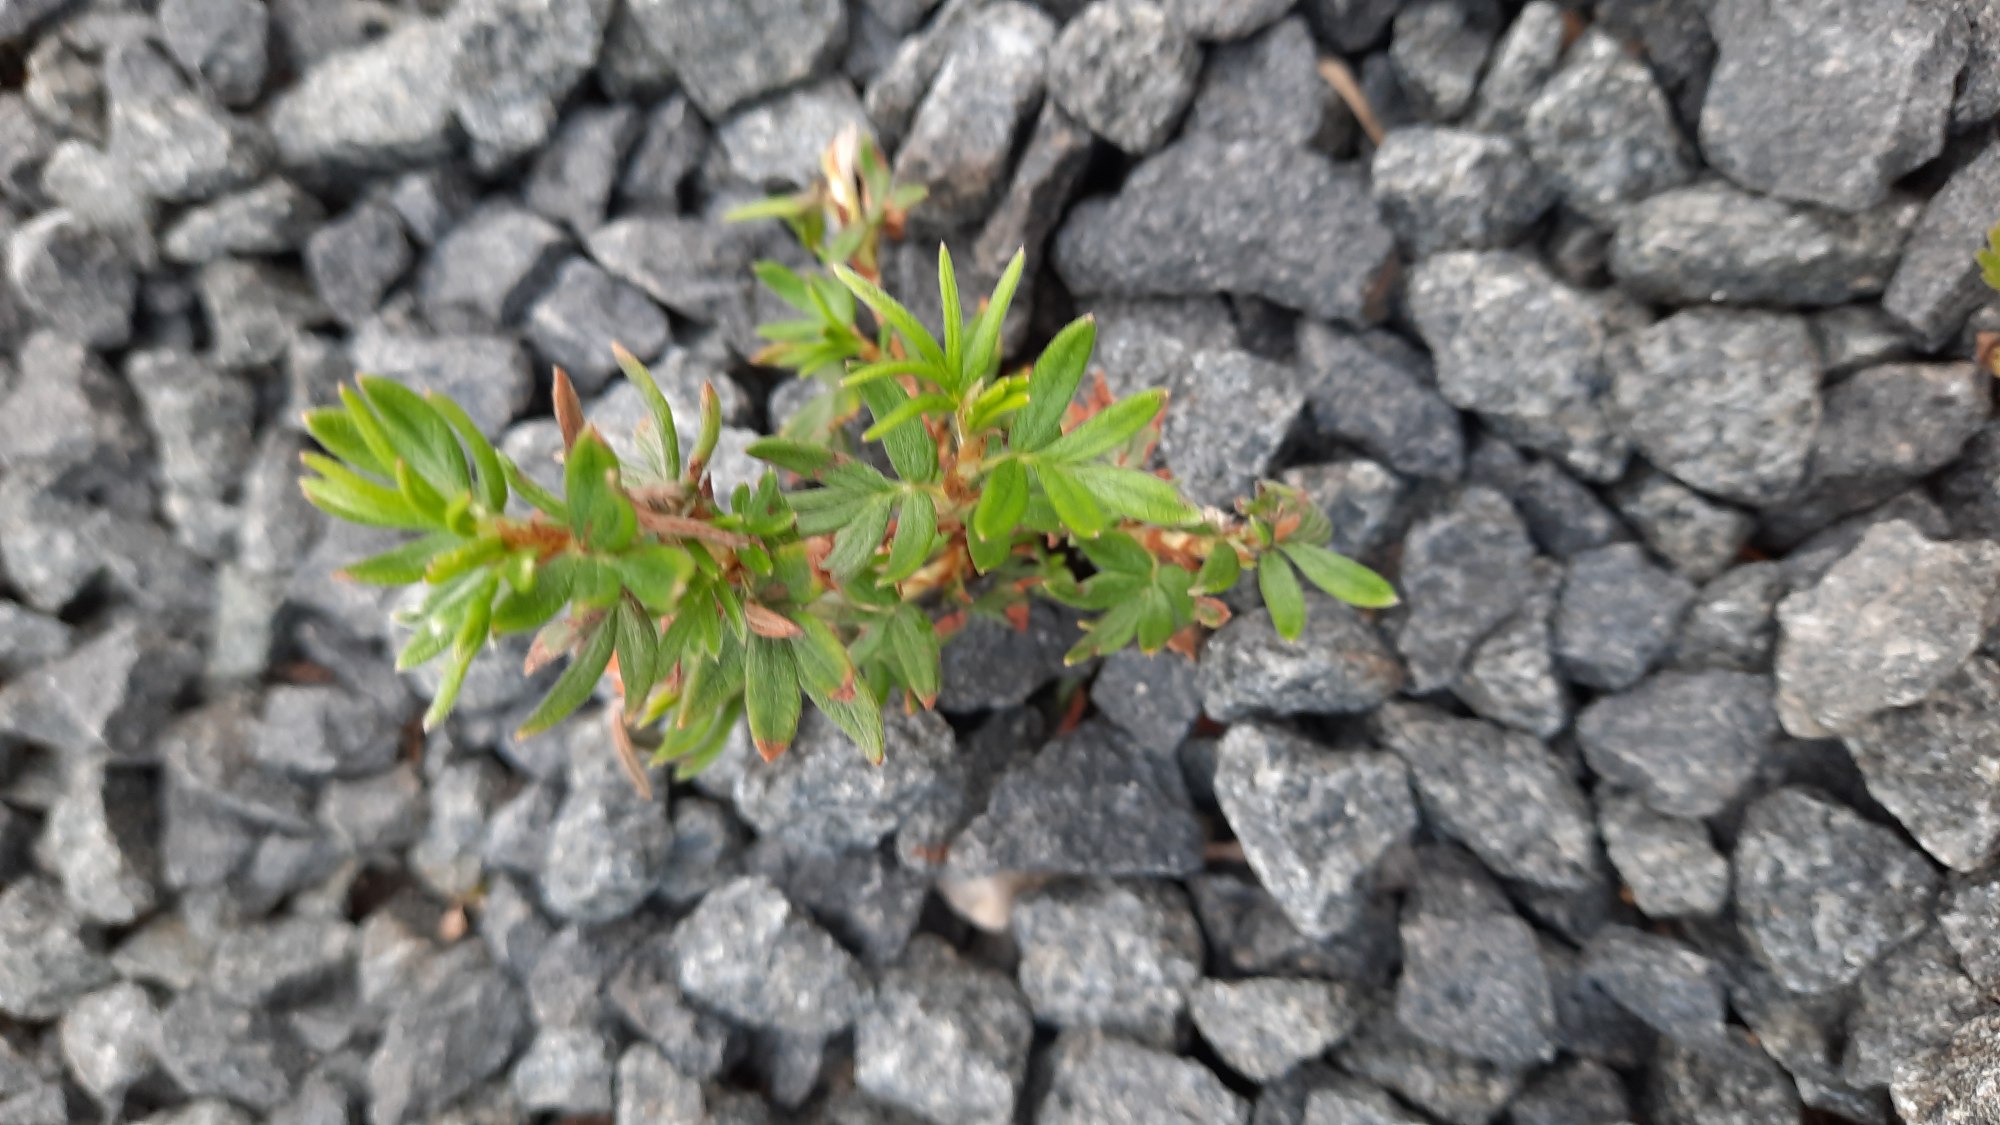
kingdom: Plantae
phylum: Tracheophyta
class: Magnoliopsida
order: Rosales
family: Rosaceae
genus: Dasiphora
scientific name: Dasiphora fruticosa
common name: Buskpotentil
